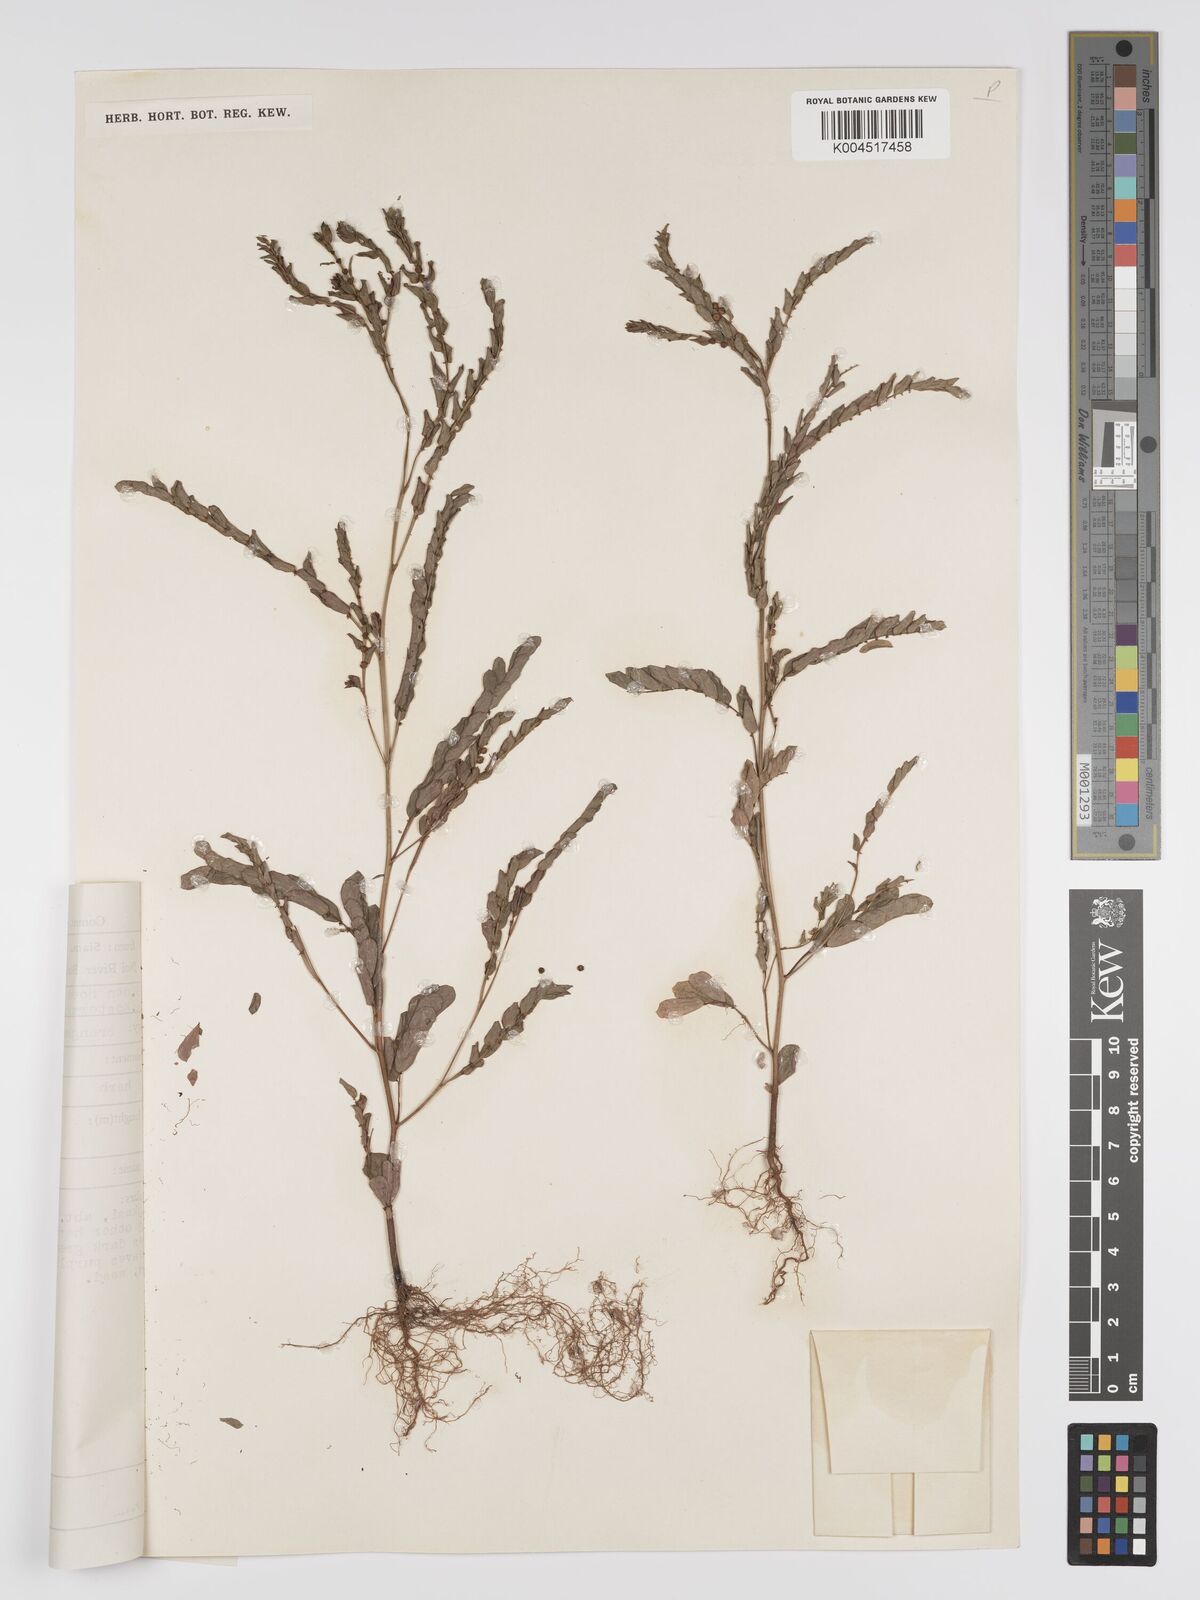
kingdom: Plantae
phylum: Tracheophyta
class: Magnoliopsida
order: Malpighiales
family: Phyllanthaceae
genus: Phyllanthus
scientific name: Phyllanthus urinaria
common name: Chamber bitter
